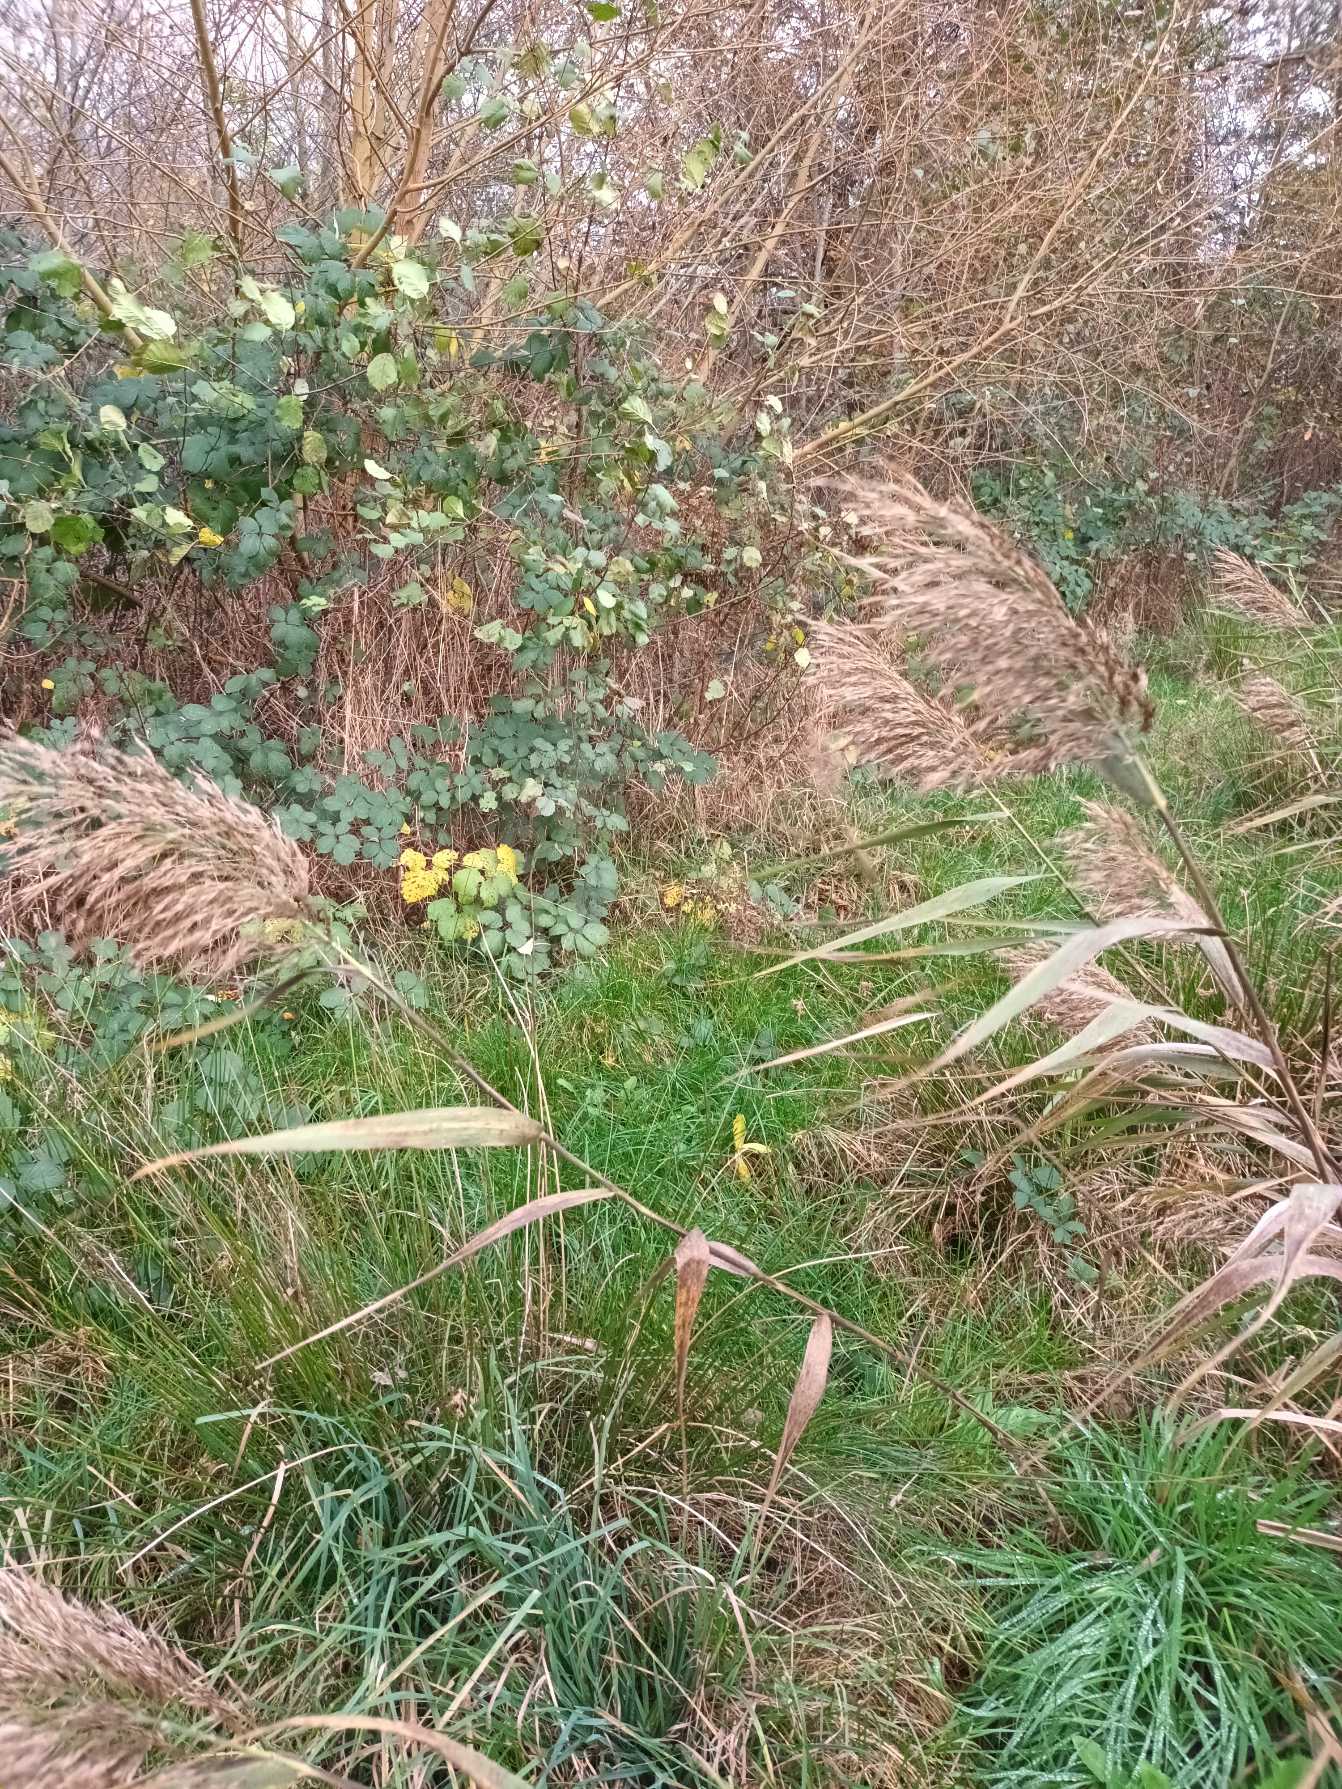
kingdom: Plantae
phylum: Tracheophyta
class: Liliopsida
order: Poales
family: Poaceae
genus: Phragmites
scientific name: Phragmites australis
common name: Tagrør
